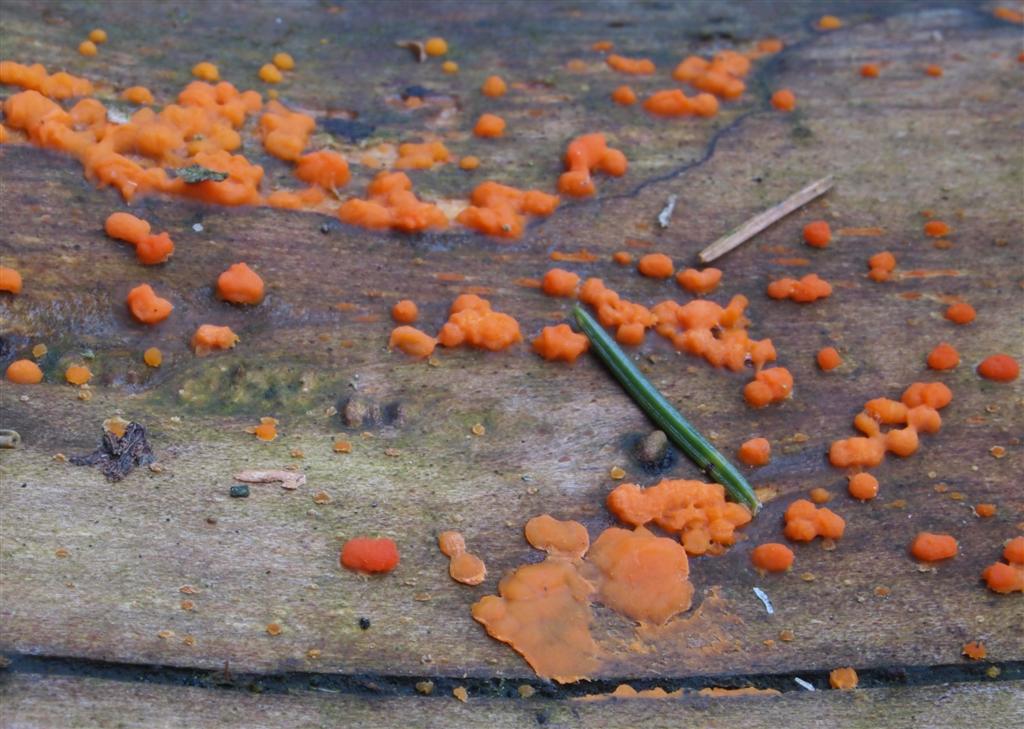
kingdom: Fungi
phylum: Basidiomycota
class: Dacrymycetes
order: Dacrymycetales
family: Dacrymycetaceae
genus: Dacrymyces
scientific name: Dacrymyces stillatus
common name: almindelig tåresvamp
